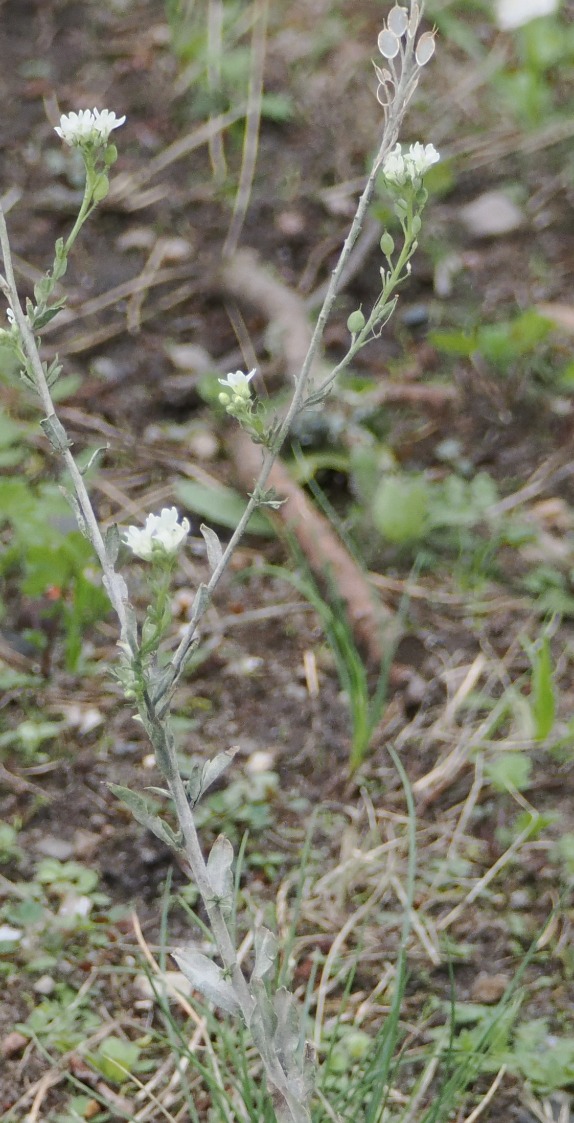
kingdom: Plantae
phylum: Tracheophyta
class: Magnoliopsida
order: Brassicales
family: Brassicaceae
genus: Berteroa
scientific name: Berteroa incana
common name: Kløvplade
